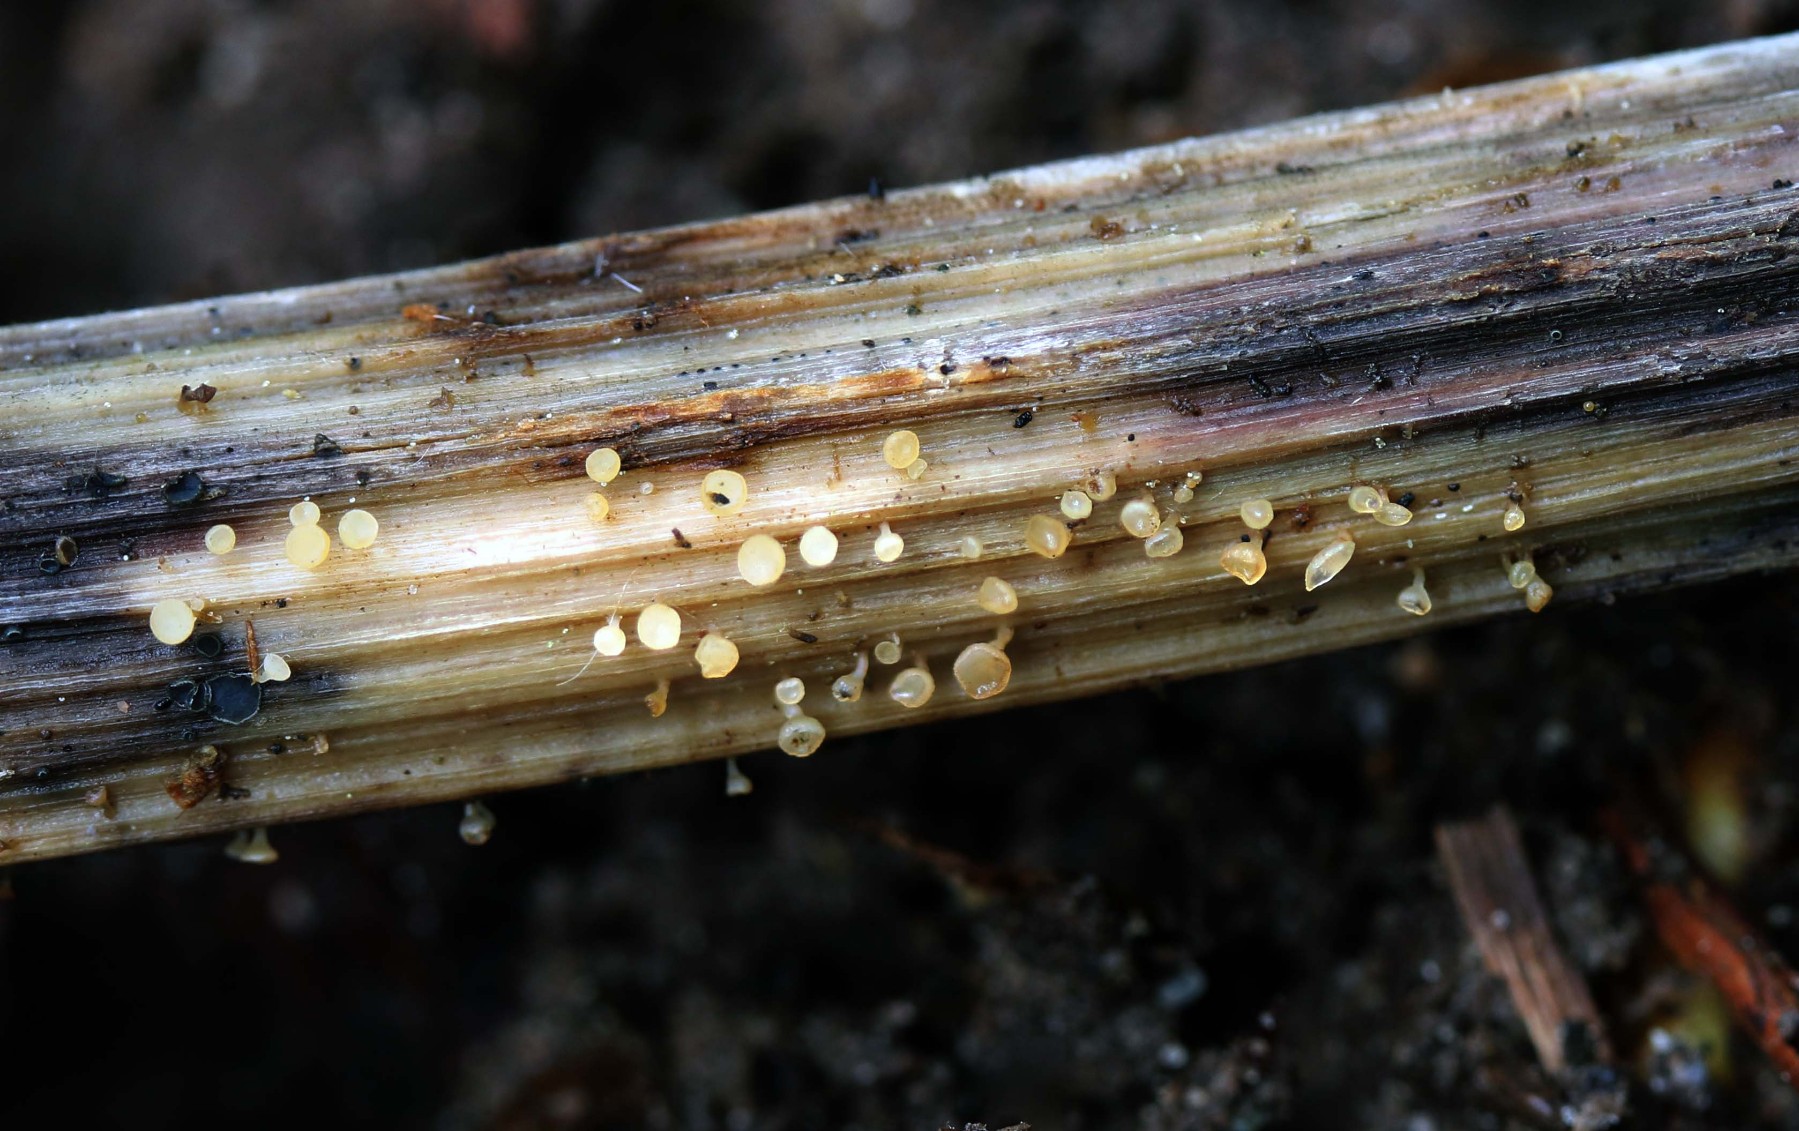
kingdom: Fungi
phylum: Ascomycota
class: Leotiomycetes
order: Helotiales
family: Helotiaceae
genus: Cyathicula
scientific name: Cyathicula cyathoidea
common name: pokal-stilkskive
